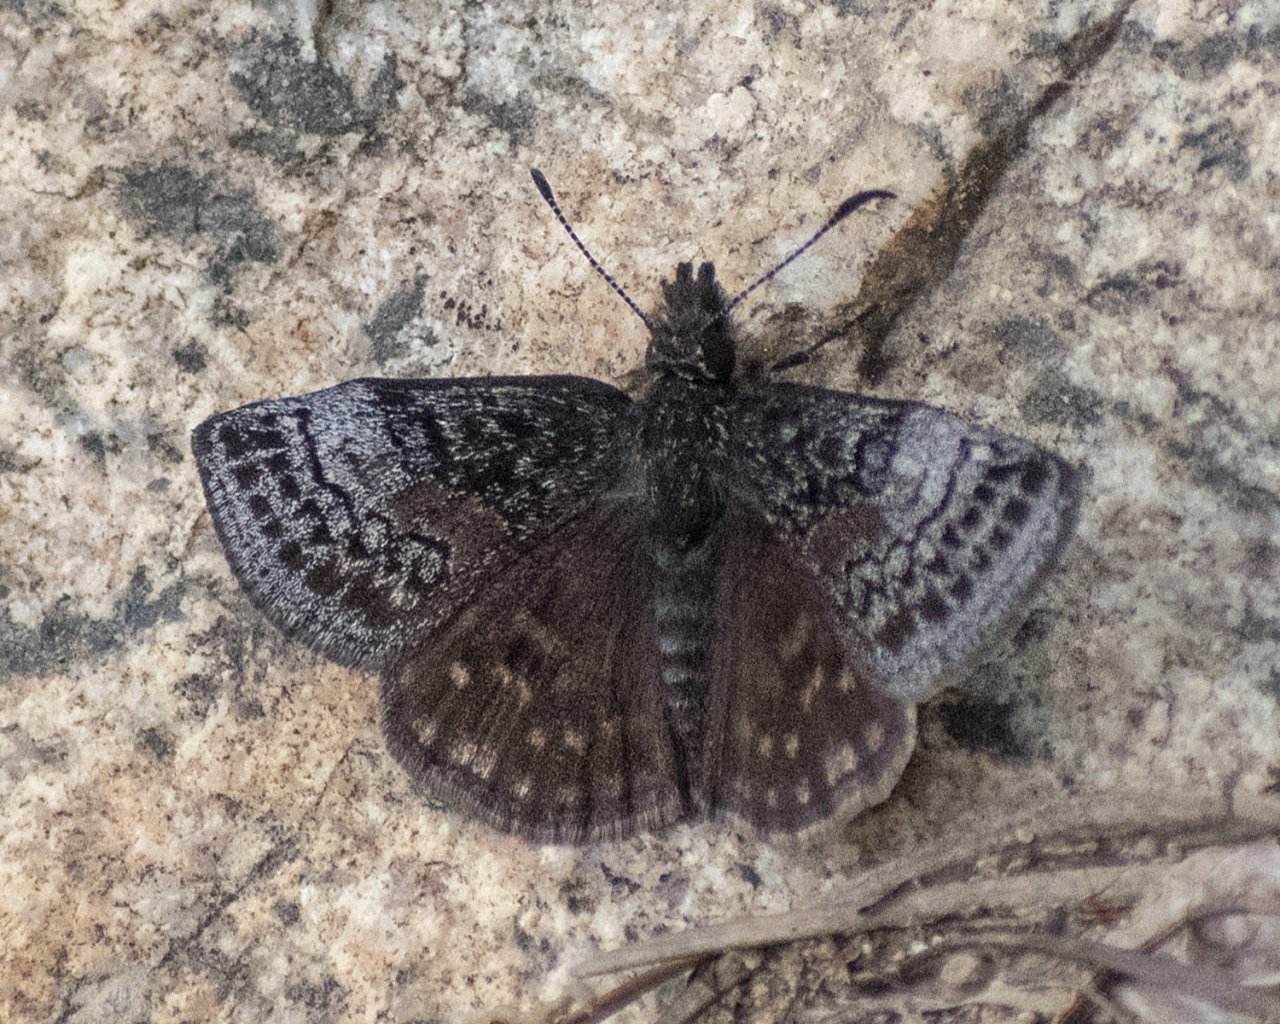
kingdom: Animalia
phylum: Arthropoda
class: Insecta
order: Lepidoptera
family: Hesperiidae
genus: Erynnis
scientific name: Erynnis icelus
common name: Dreamy Duskywing
